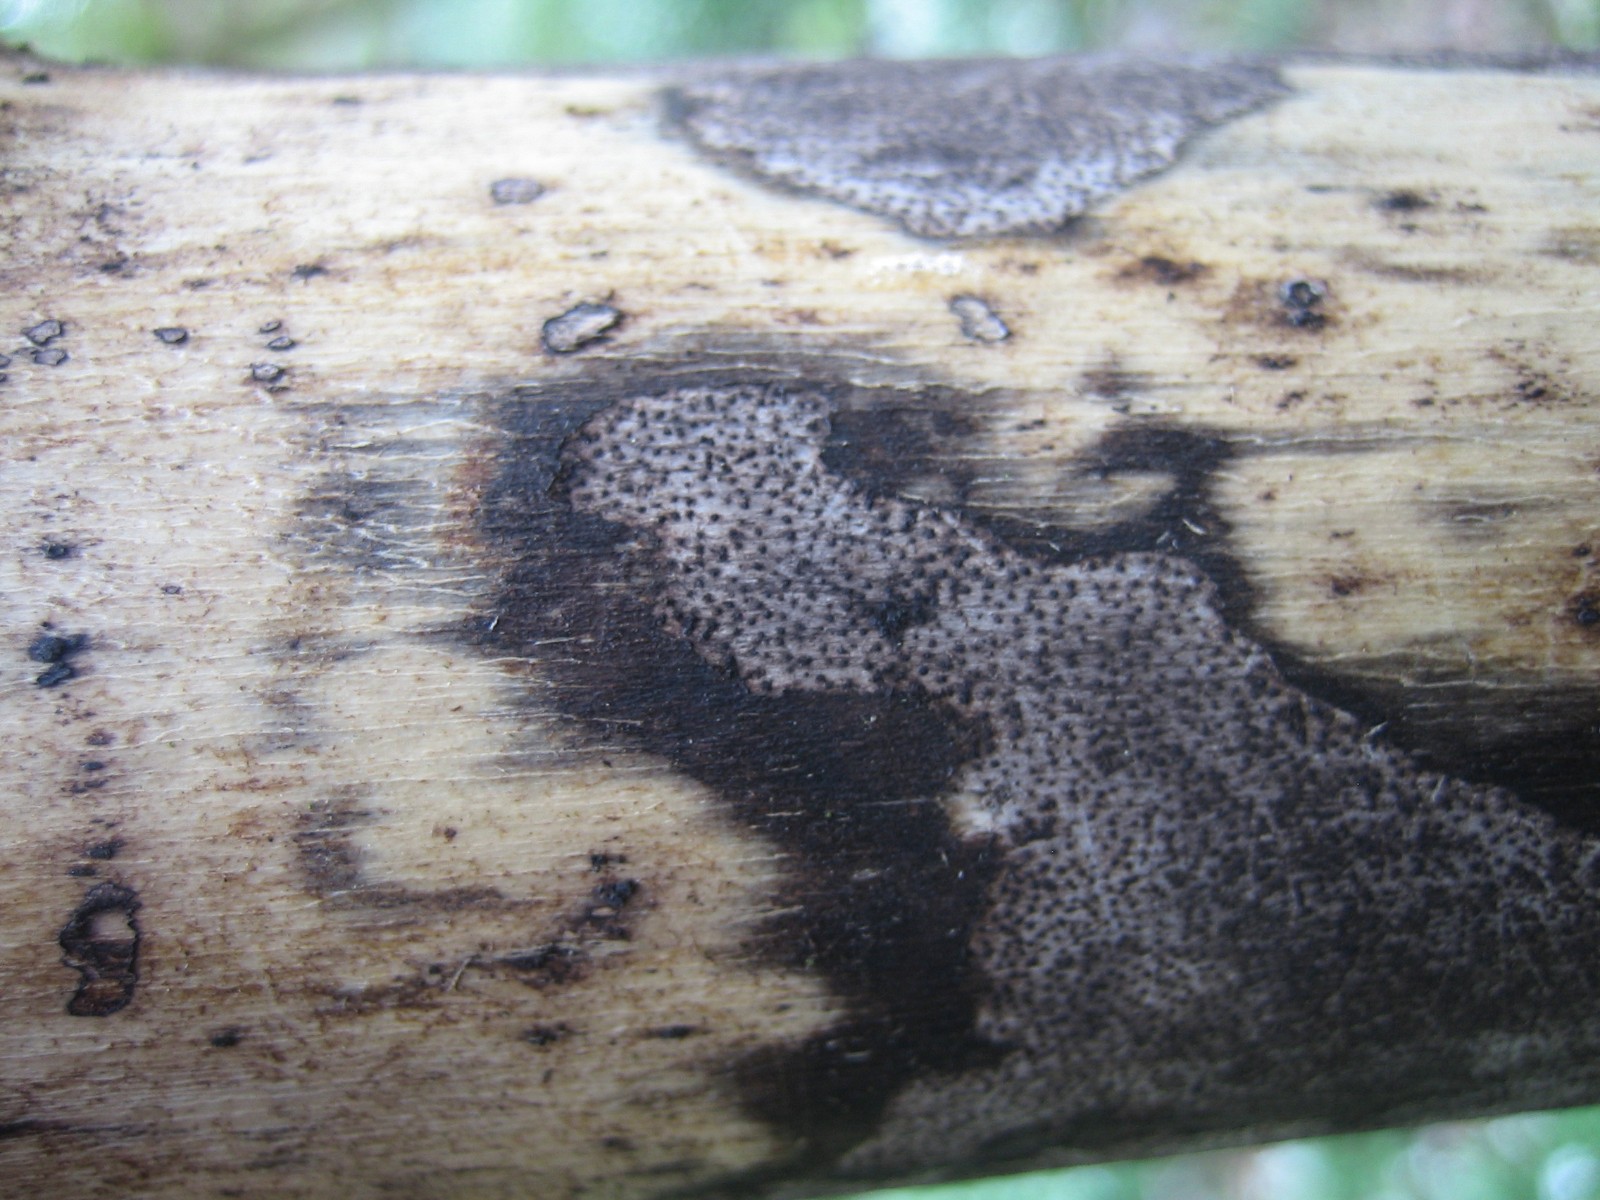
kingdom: Fungi
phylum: Ascomycota
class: Sordariomycetes
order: Xylariales
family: Diatrypaceae
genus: Eutypa
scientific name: Eutypa maura
